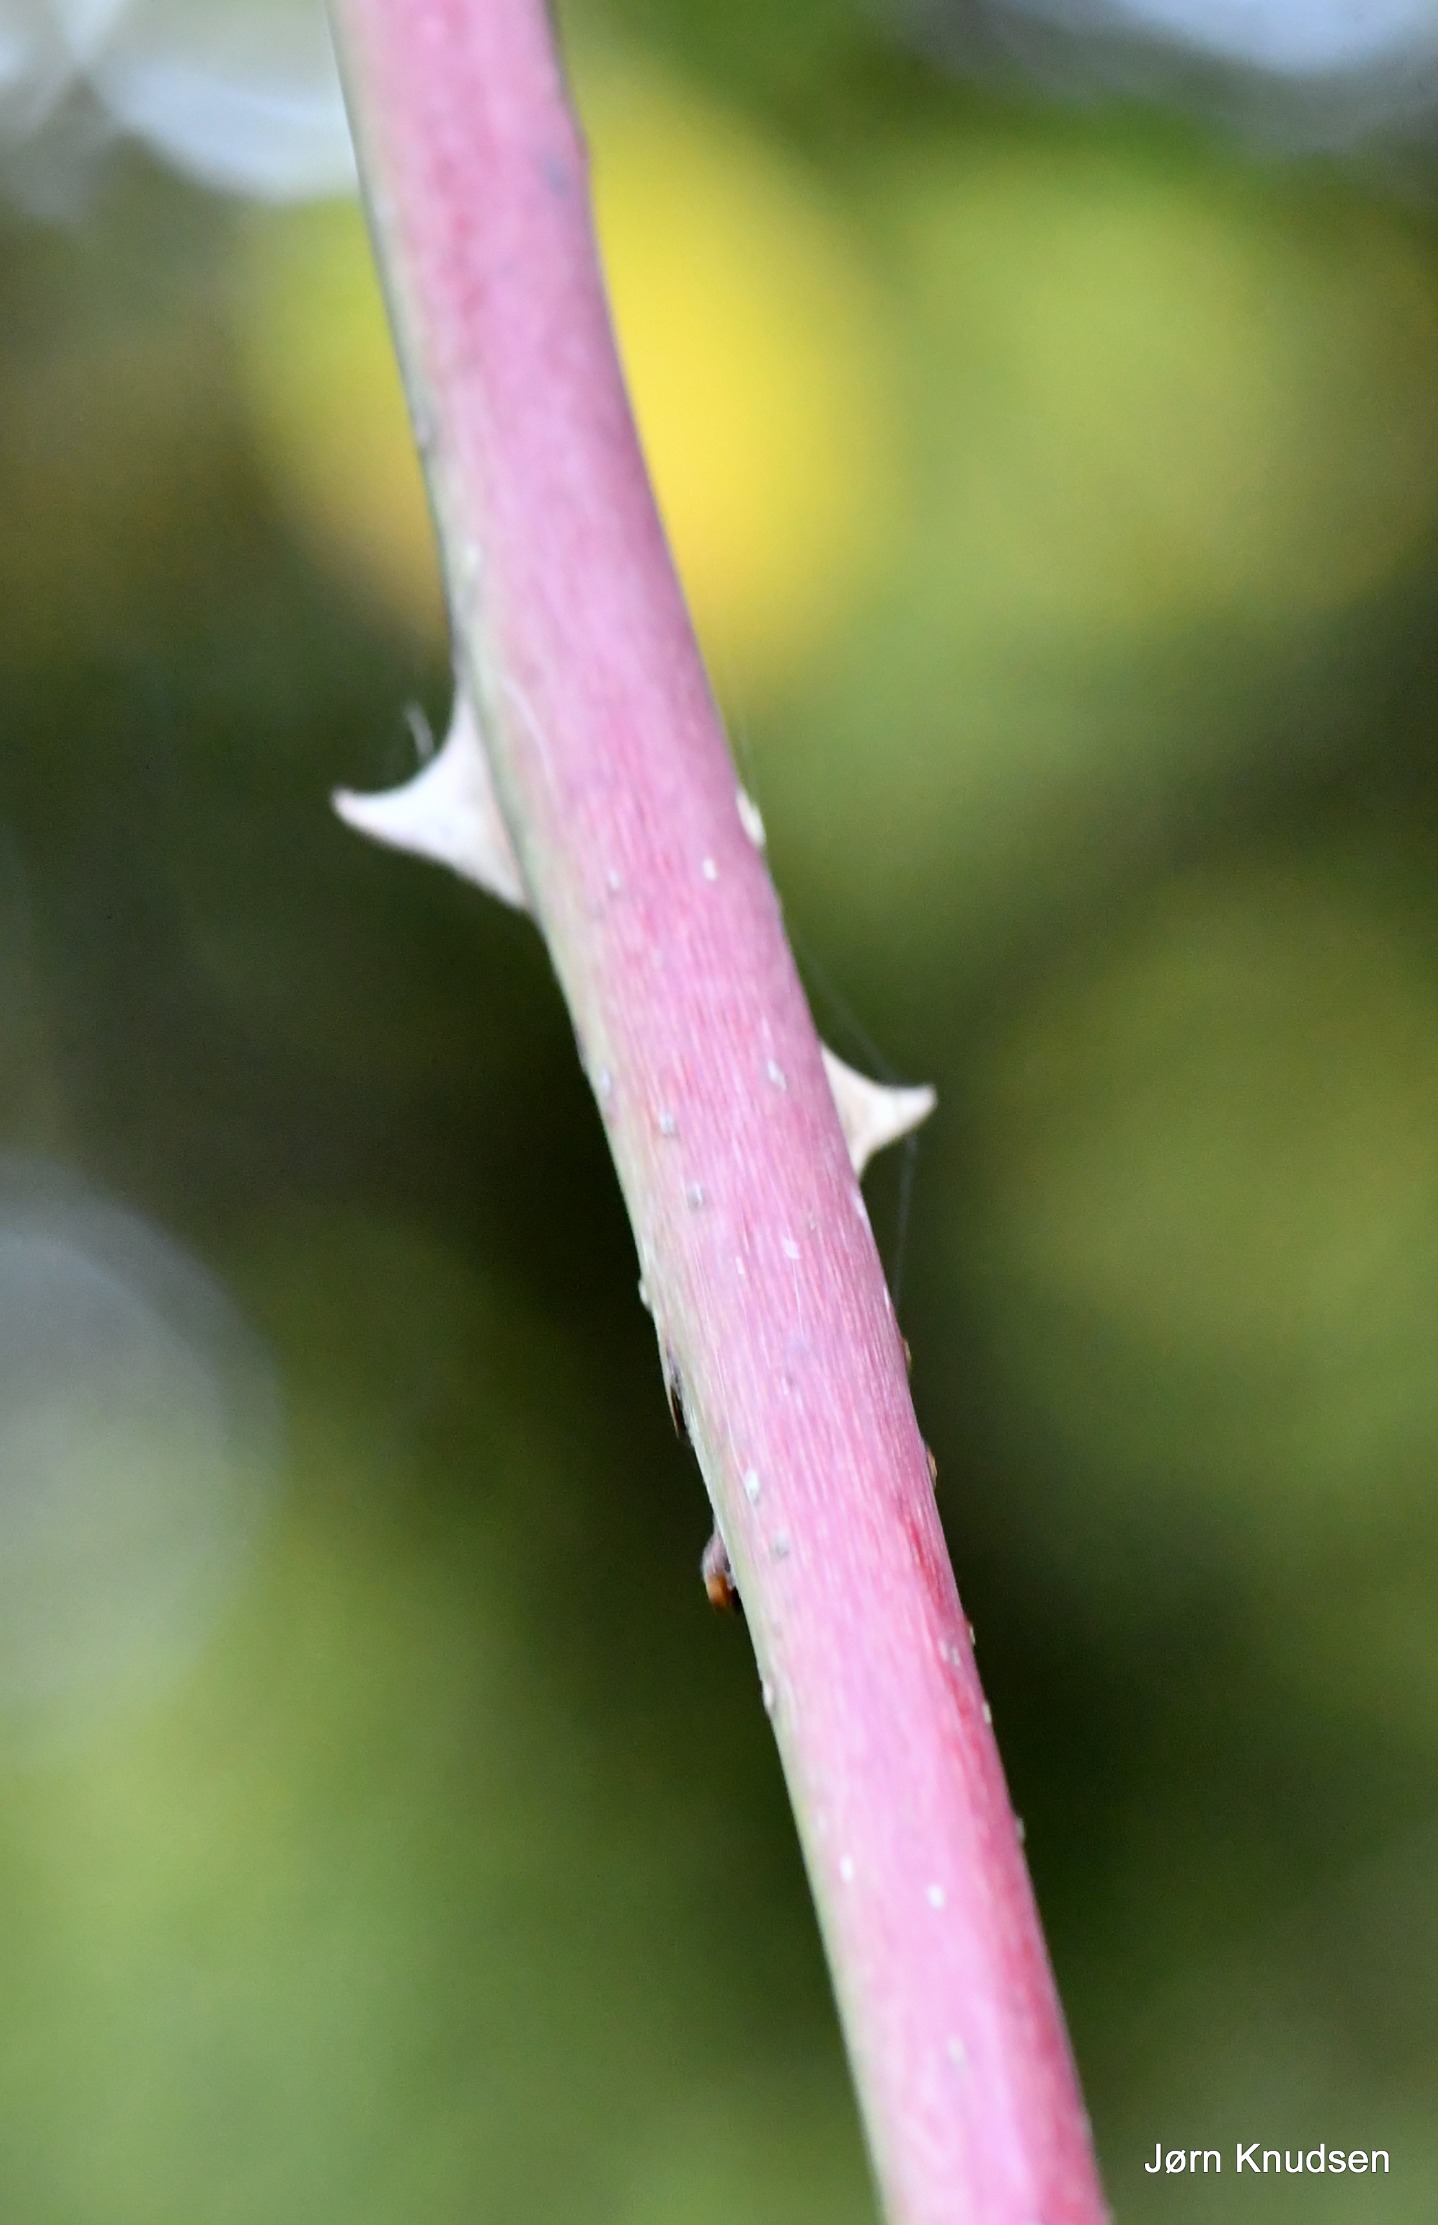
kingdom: Plantae
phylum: Tracheophyta
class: Magnoliopsida
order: Rosales
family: Rosaceae
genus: Rosa
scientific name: Rosa canina
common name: Hunde-rose
